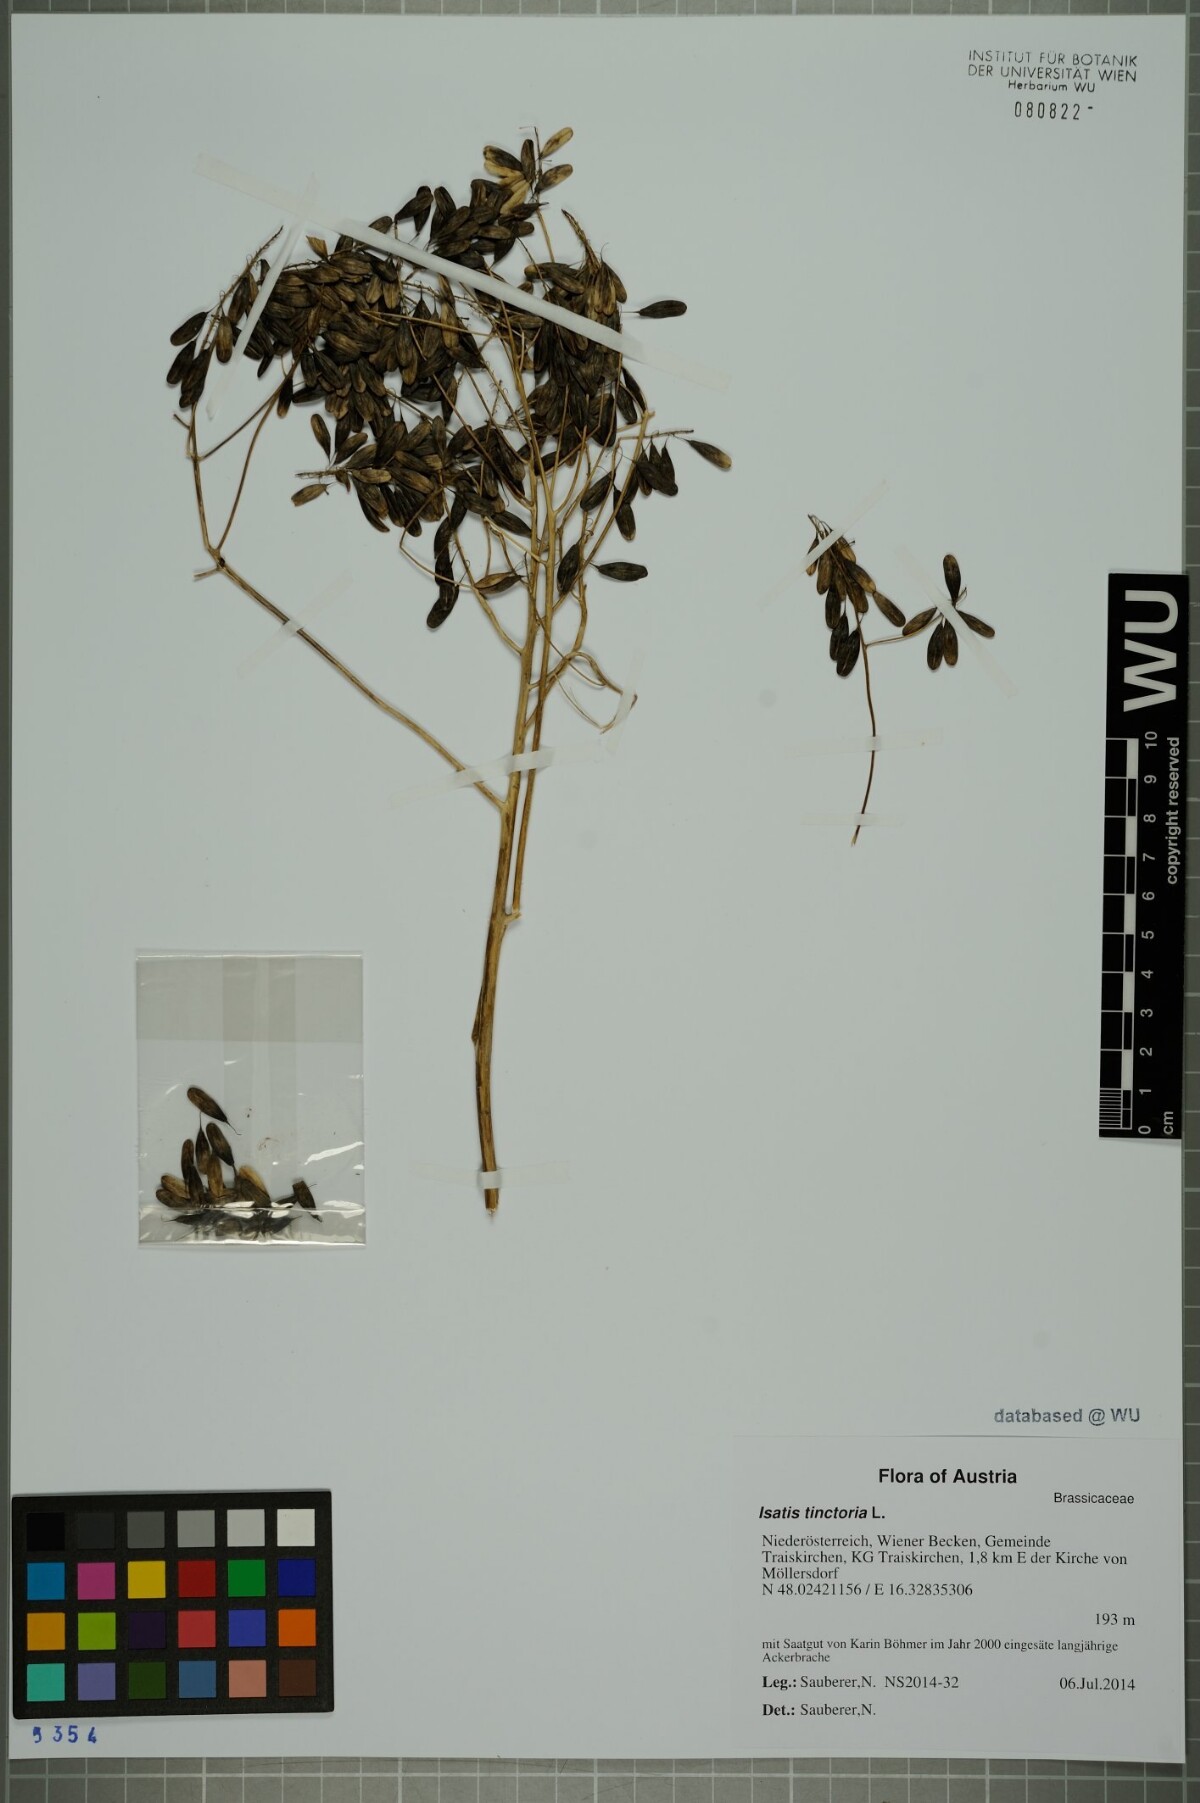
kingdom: Plantae
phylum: Tracheophyta
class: Magnoliopsida
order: Brassicales
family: Brassicaceae
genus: Isatis
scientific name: Isatis tinctoria
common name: Woad
